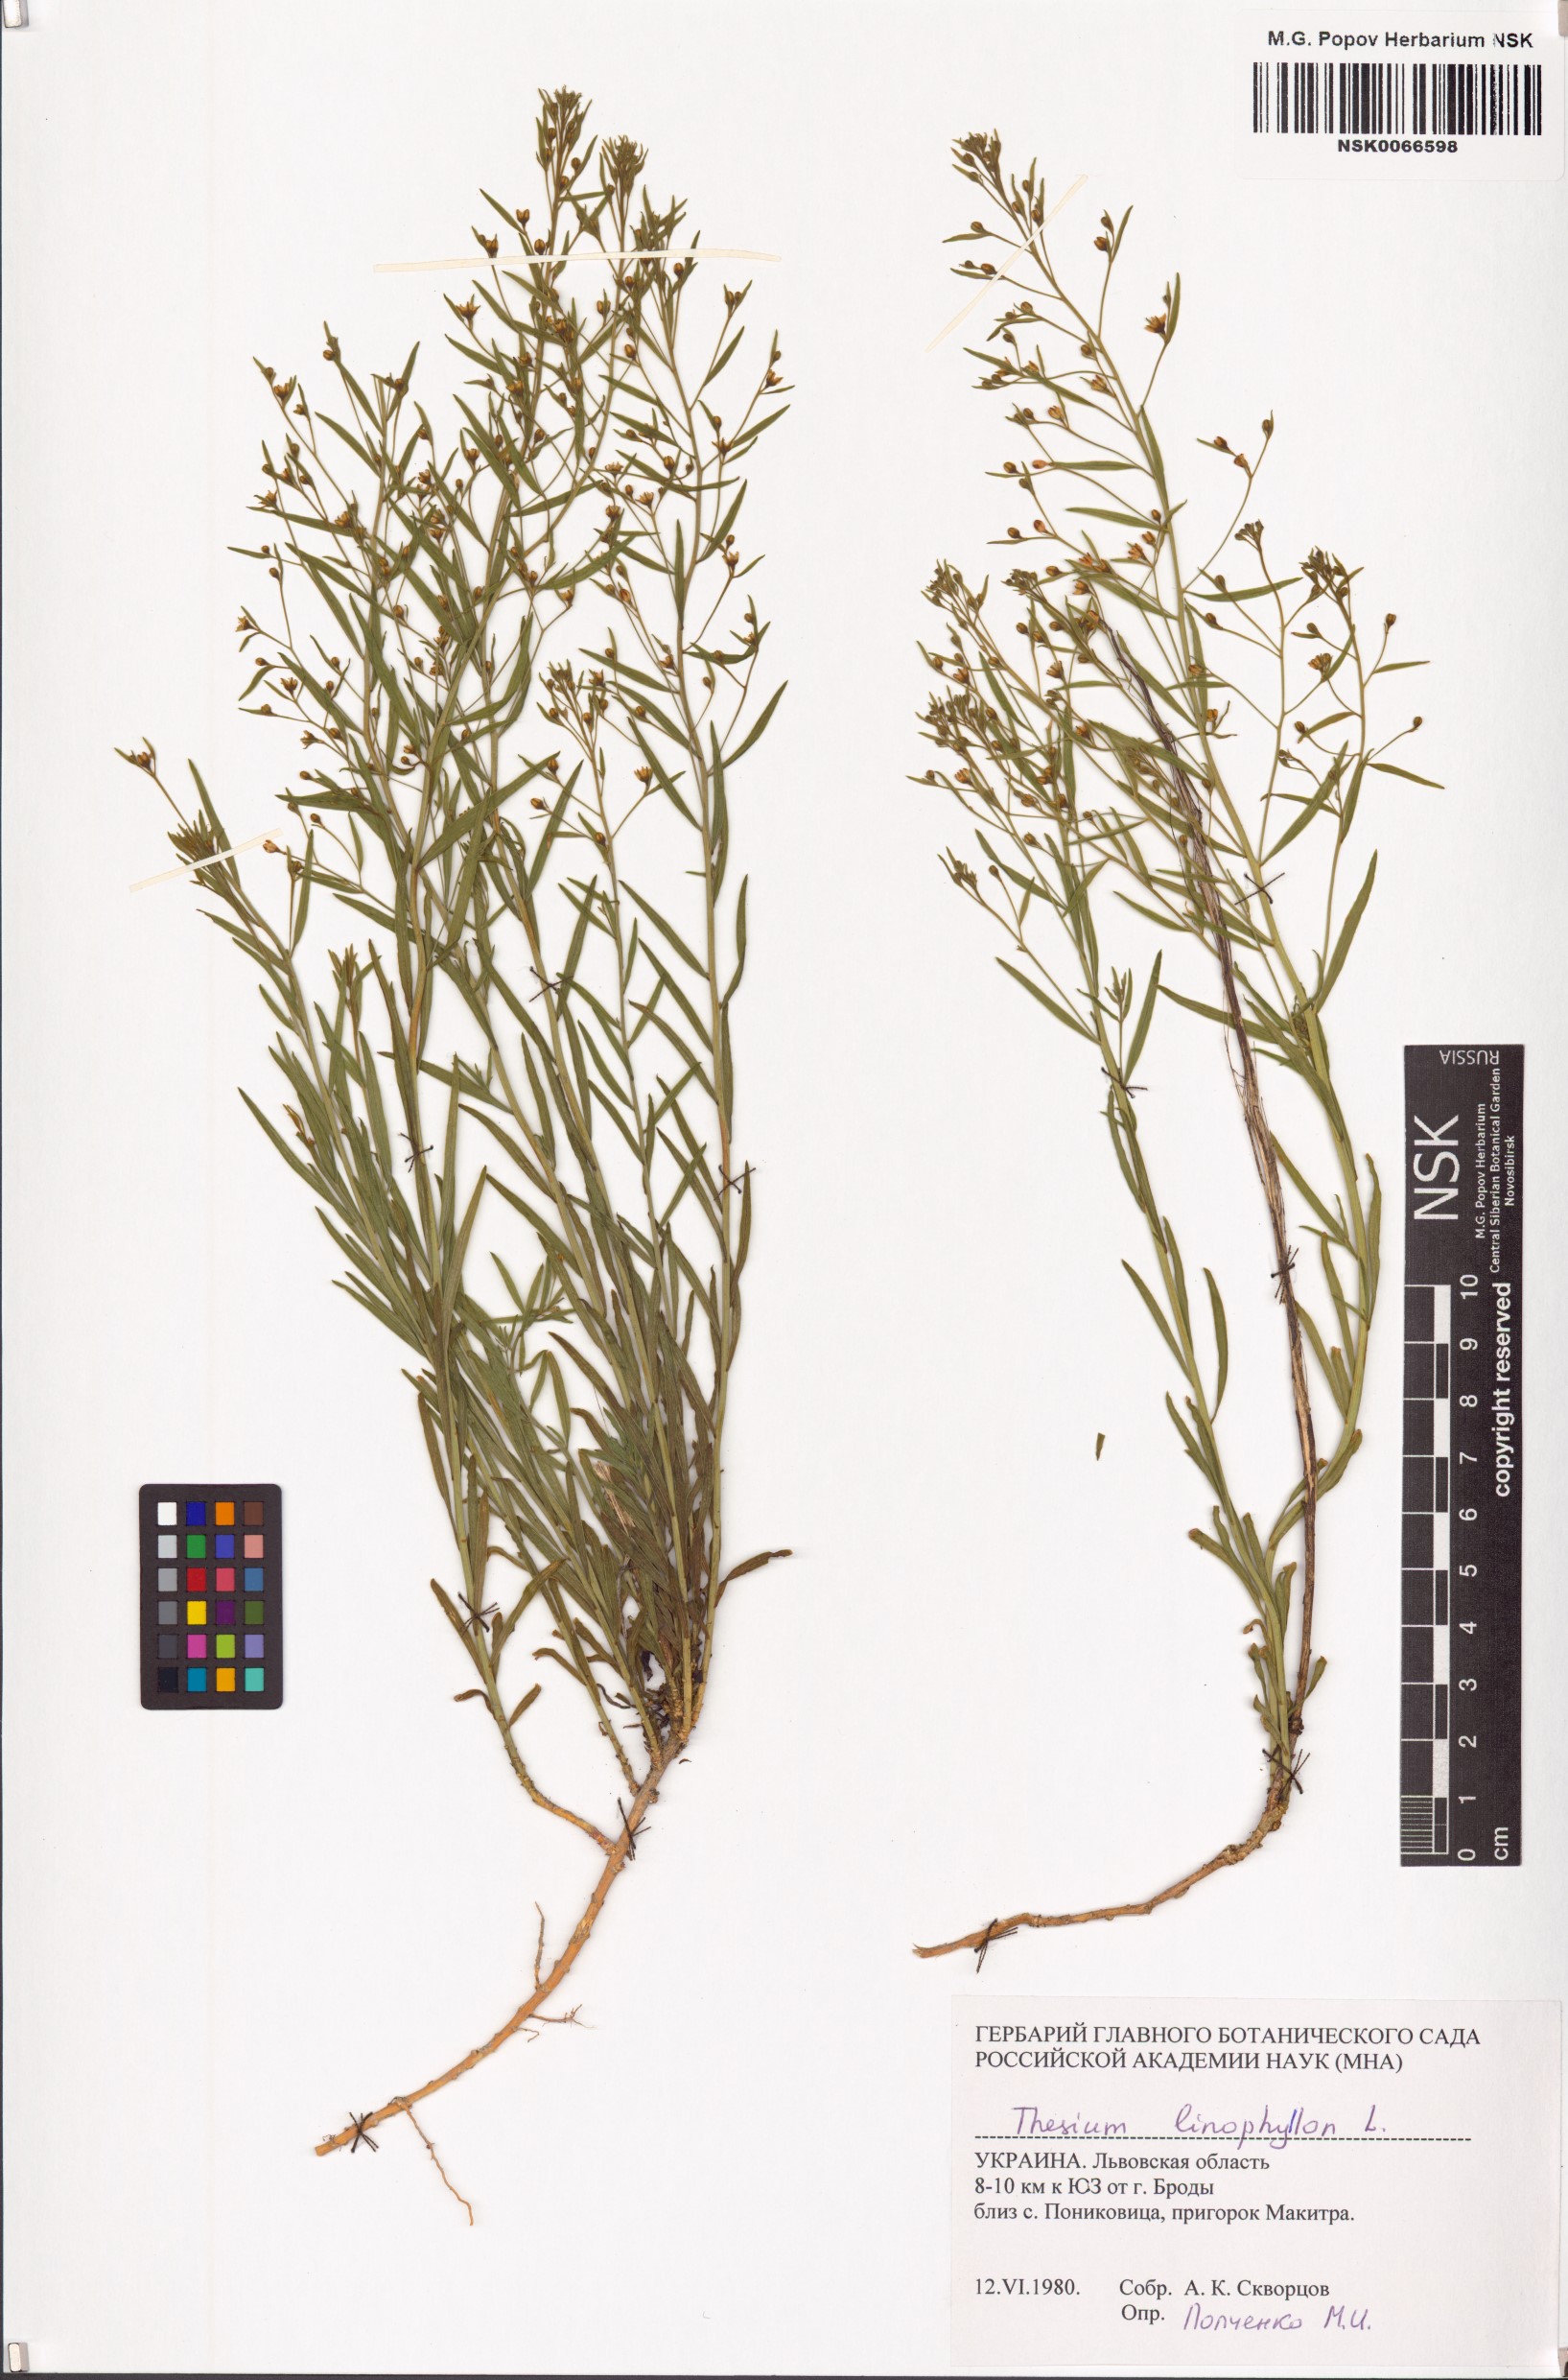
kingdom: Plantae
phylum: Tracheophyta
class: Magnoliopsida
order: Santalales
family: Thesiaceae
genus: Thesium
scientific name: Thesium linophyllon
